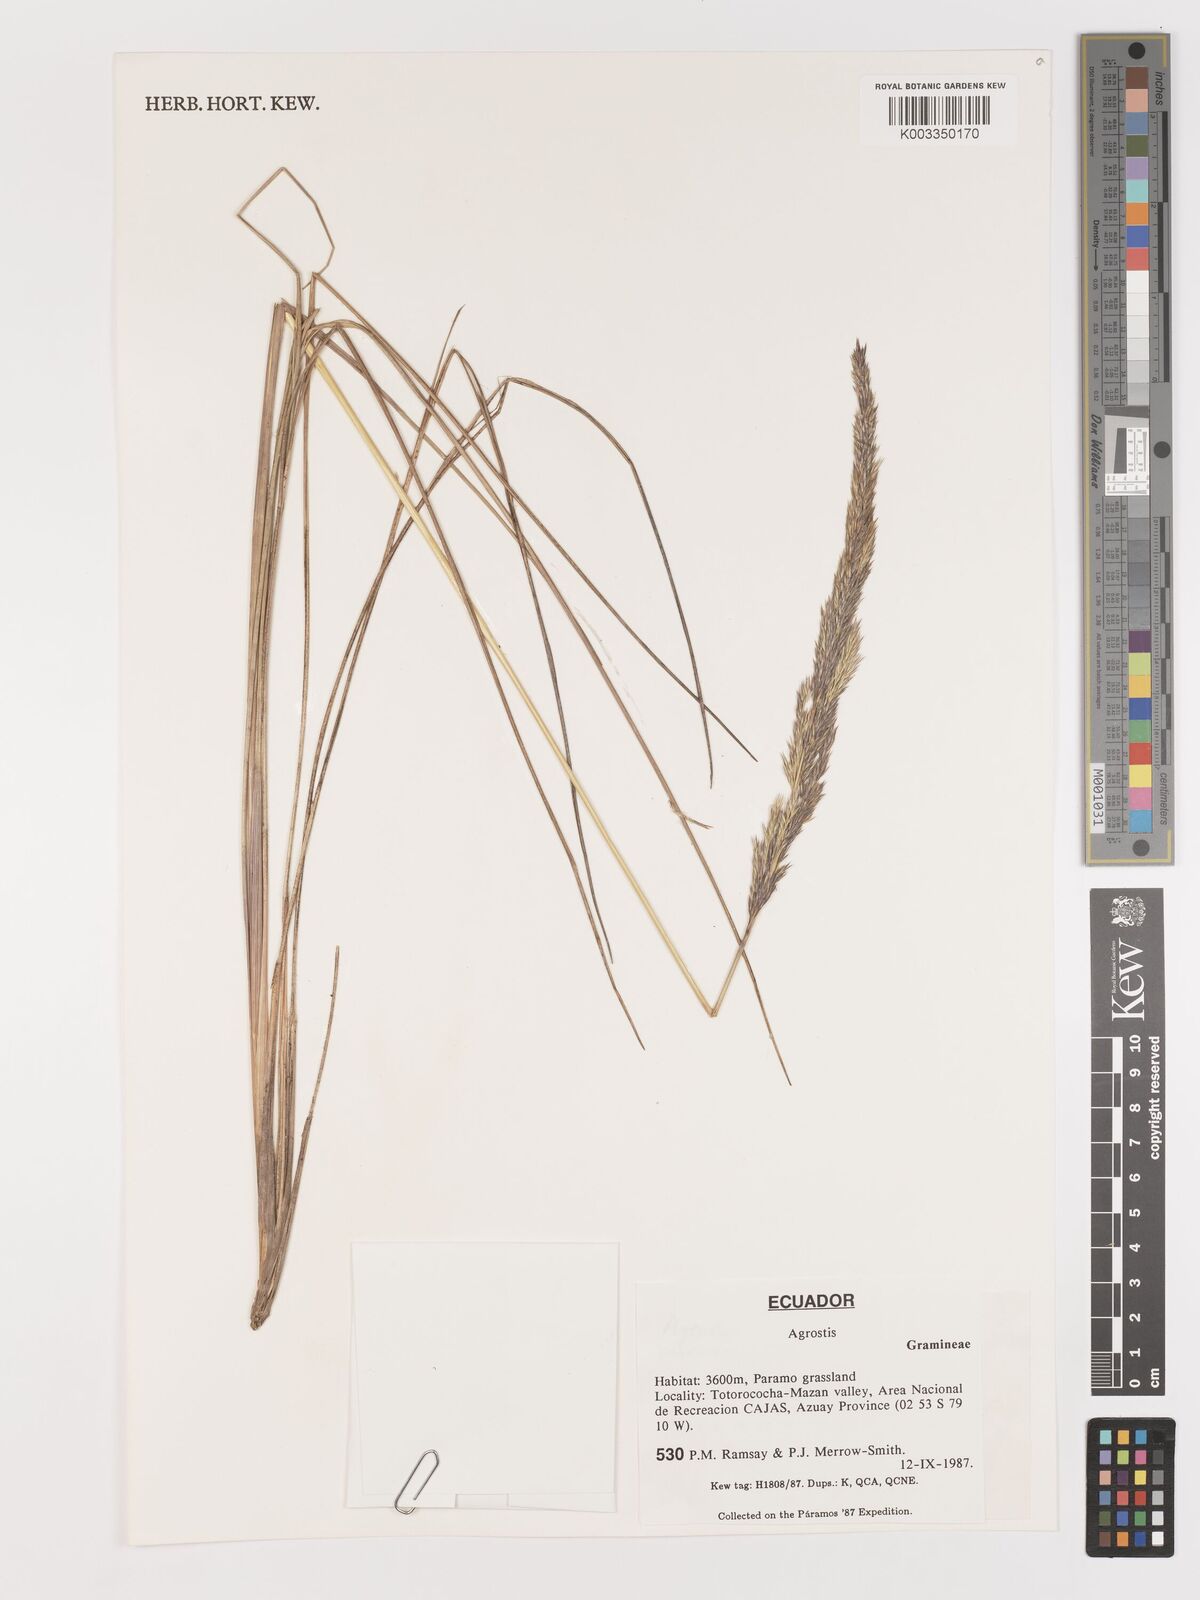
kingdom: Plantae
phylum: Tracheophyta
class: Liliopsida
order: Poales
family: Poaceae
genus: Agrostis
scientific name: Agrostis
